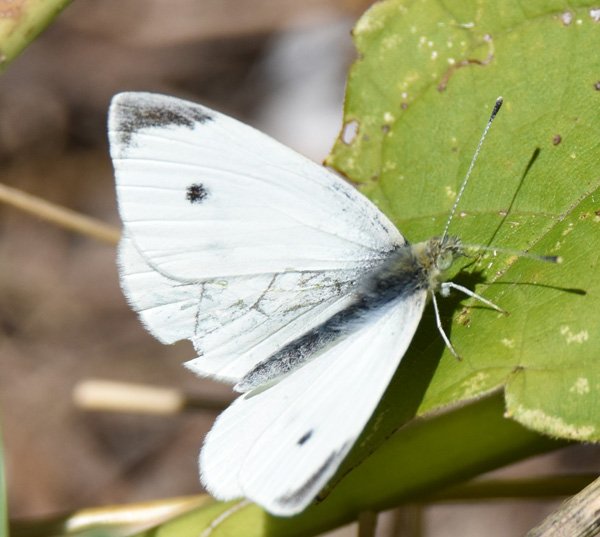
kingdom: Animalia
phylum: Arthropoda
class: Insecta
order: Lepidoptera
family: Pieridae
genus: Pieris
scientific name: Pieris rapae
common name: Cabbage White
